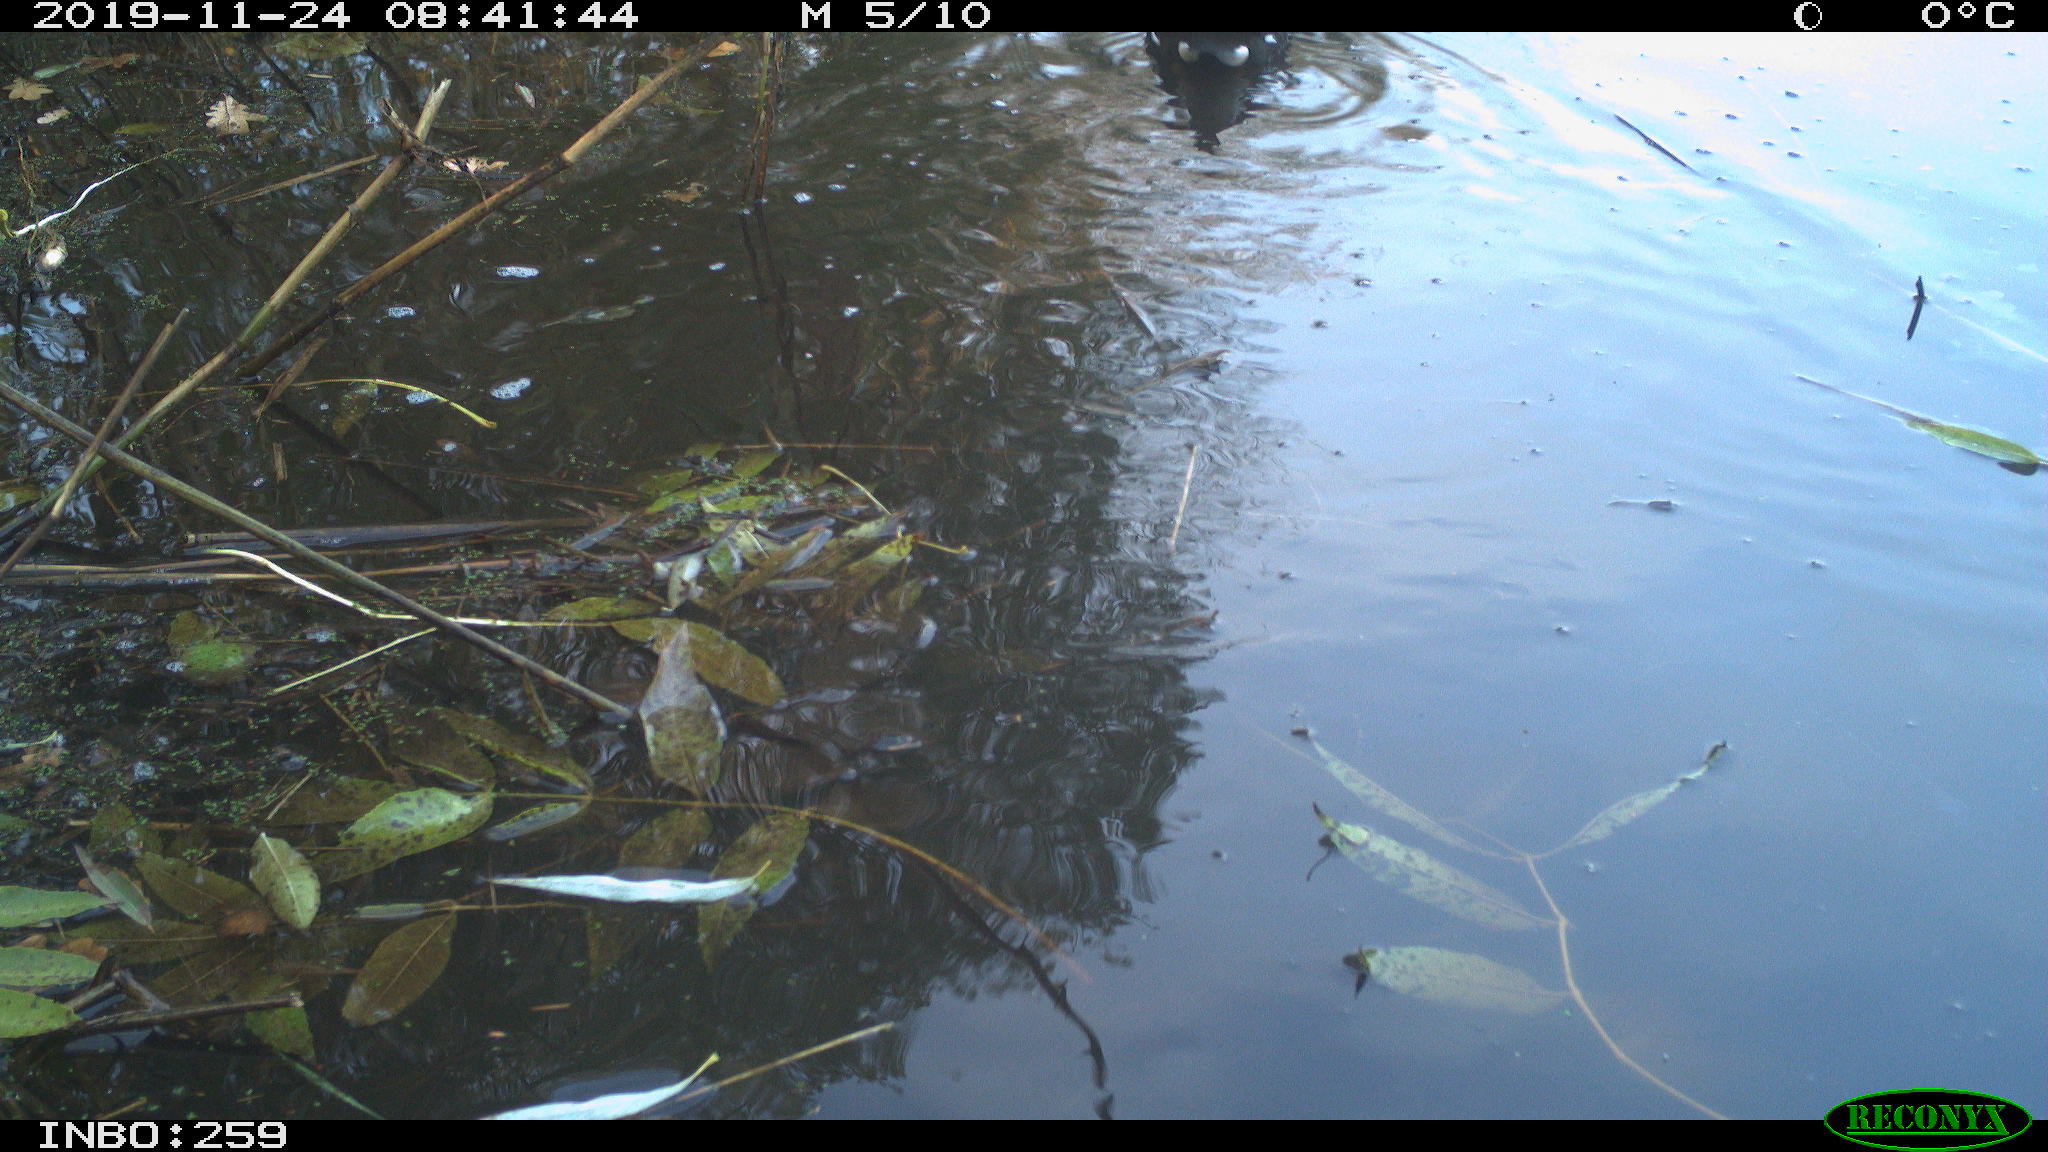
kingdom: Animalia
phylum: Chordata
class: Aves
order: Gruiformes
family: Rallidae
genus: Gallinula
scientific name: Gallinula chloropus
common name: Common moorhen
